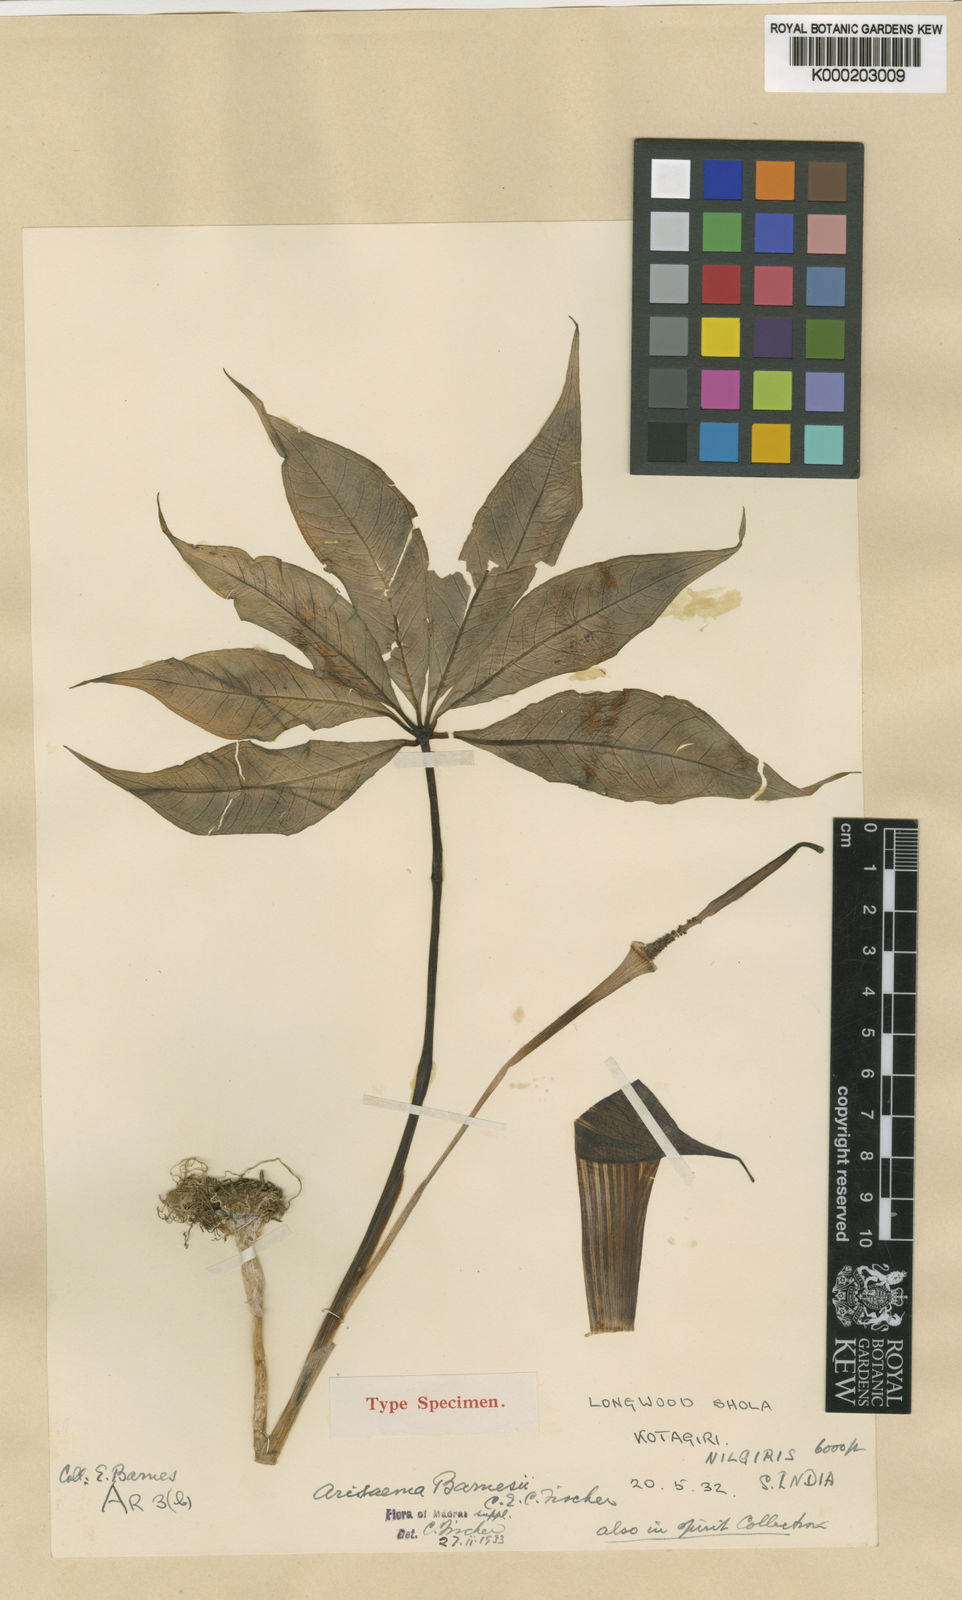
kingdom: Plantae
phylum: Tracheophyta
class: Liliopsida
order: Alismatales
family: Araceae
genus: Arisaema
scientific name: Arisaema barnesii
